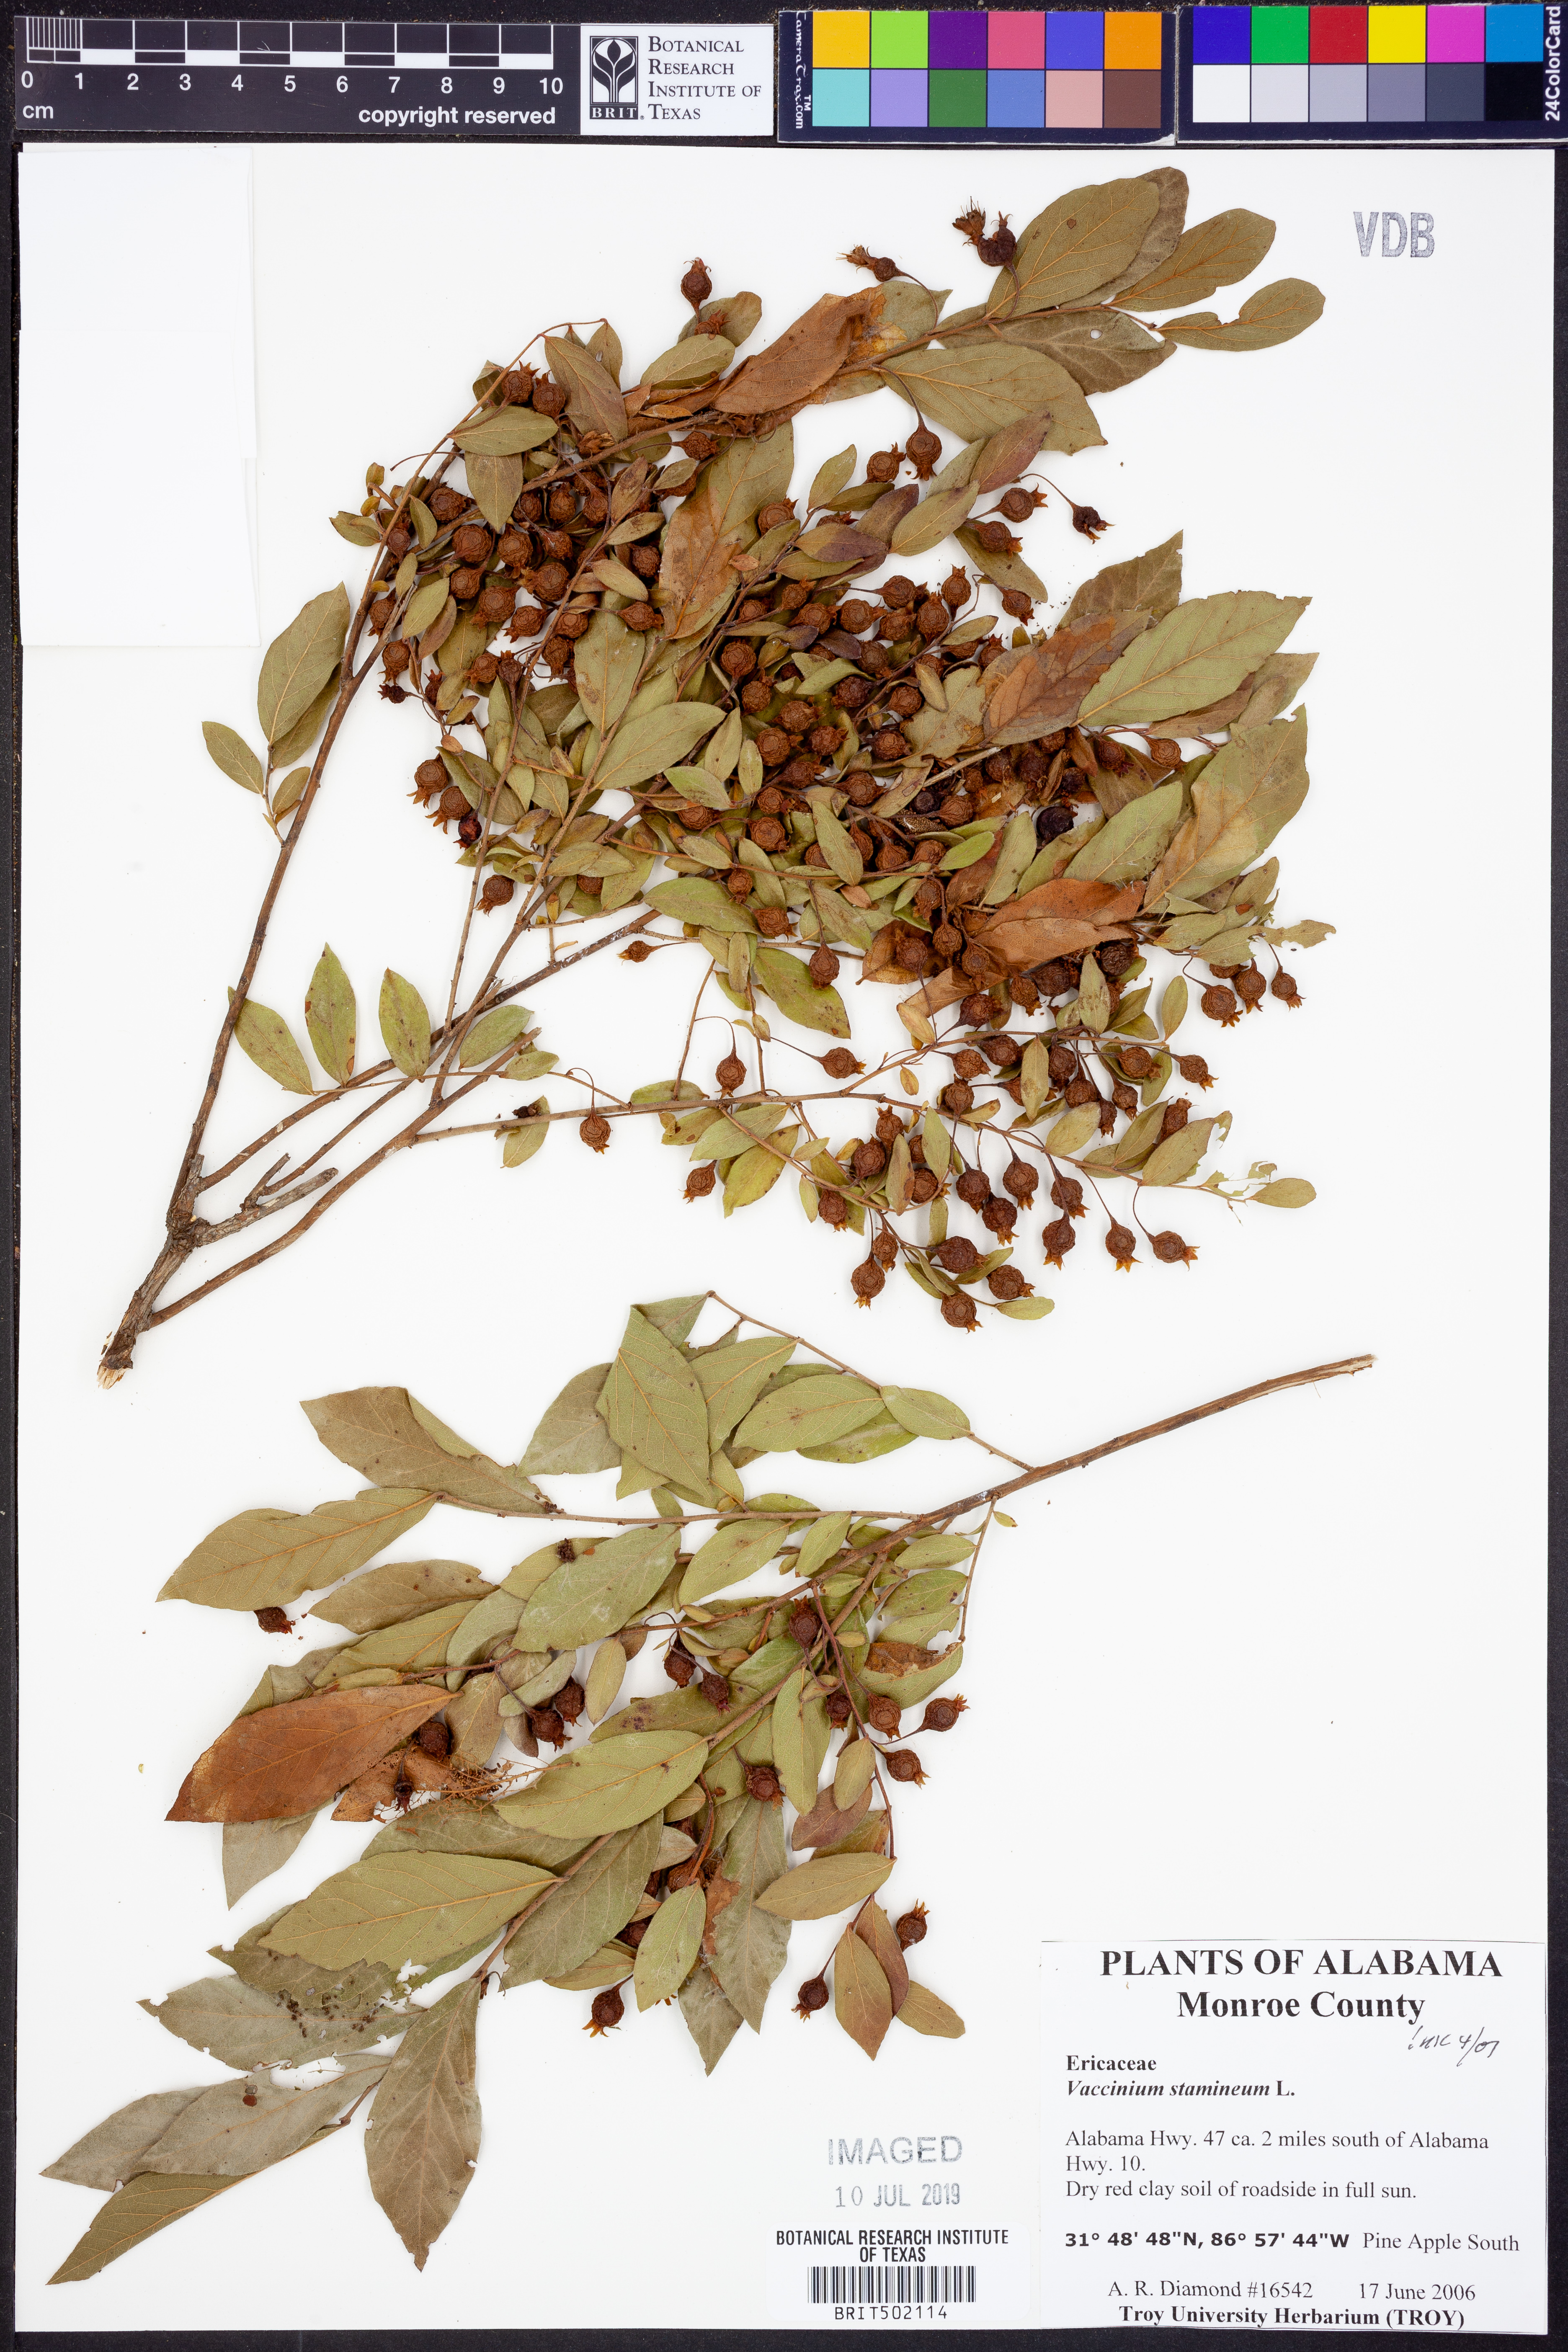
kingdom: Plantae
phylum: Tracheophyta
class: Magnoliopsida
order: Ericales
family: Ericaceae
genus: Vaccinium
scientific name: Vaccinium stamineum
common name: Deerberry
